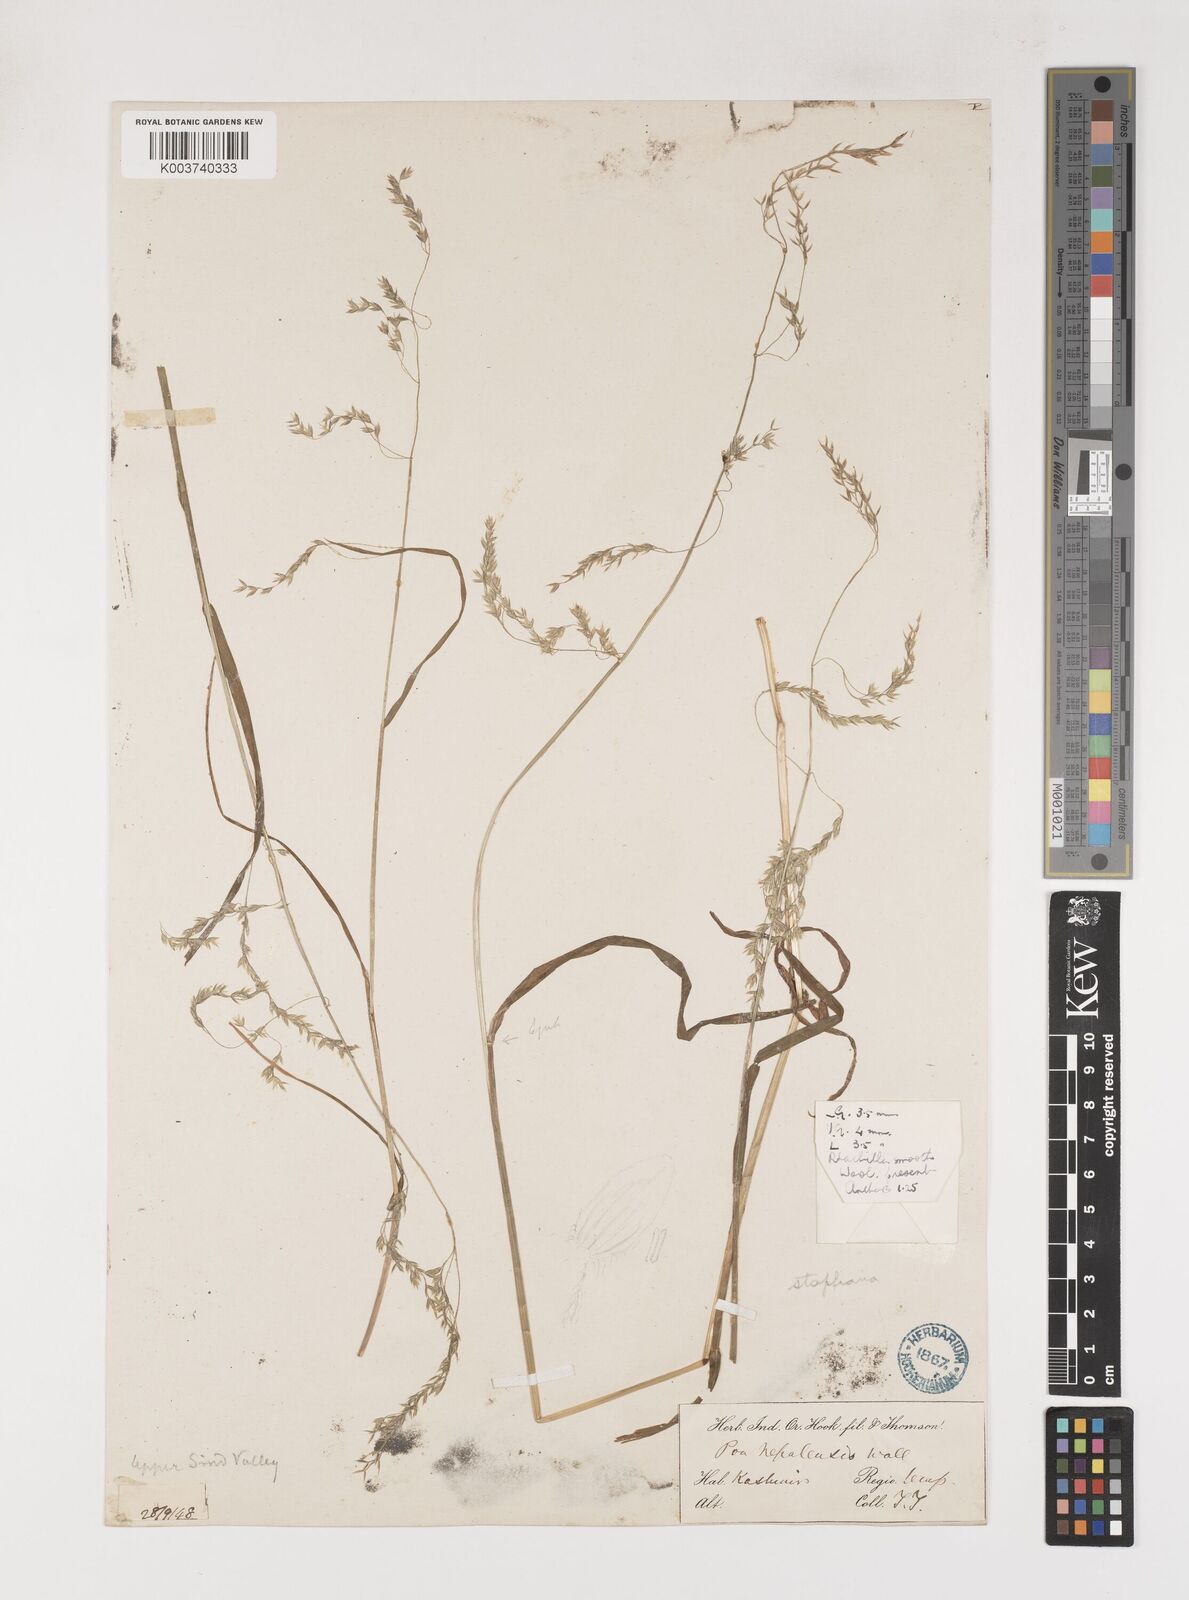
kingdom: Plantae
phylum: Tracheophyta
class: Liliopsida
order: Poales
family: Poaceae
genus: Poa
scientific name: Poa stapfiana
